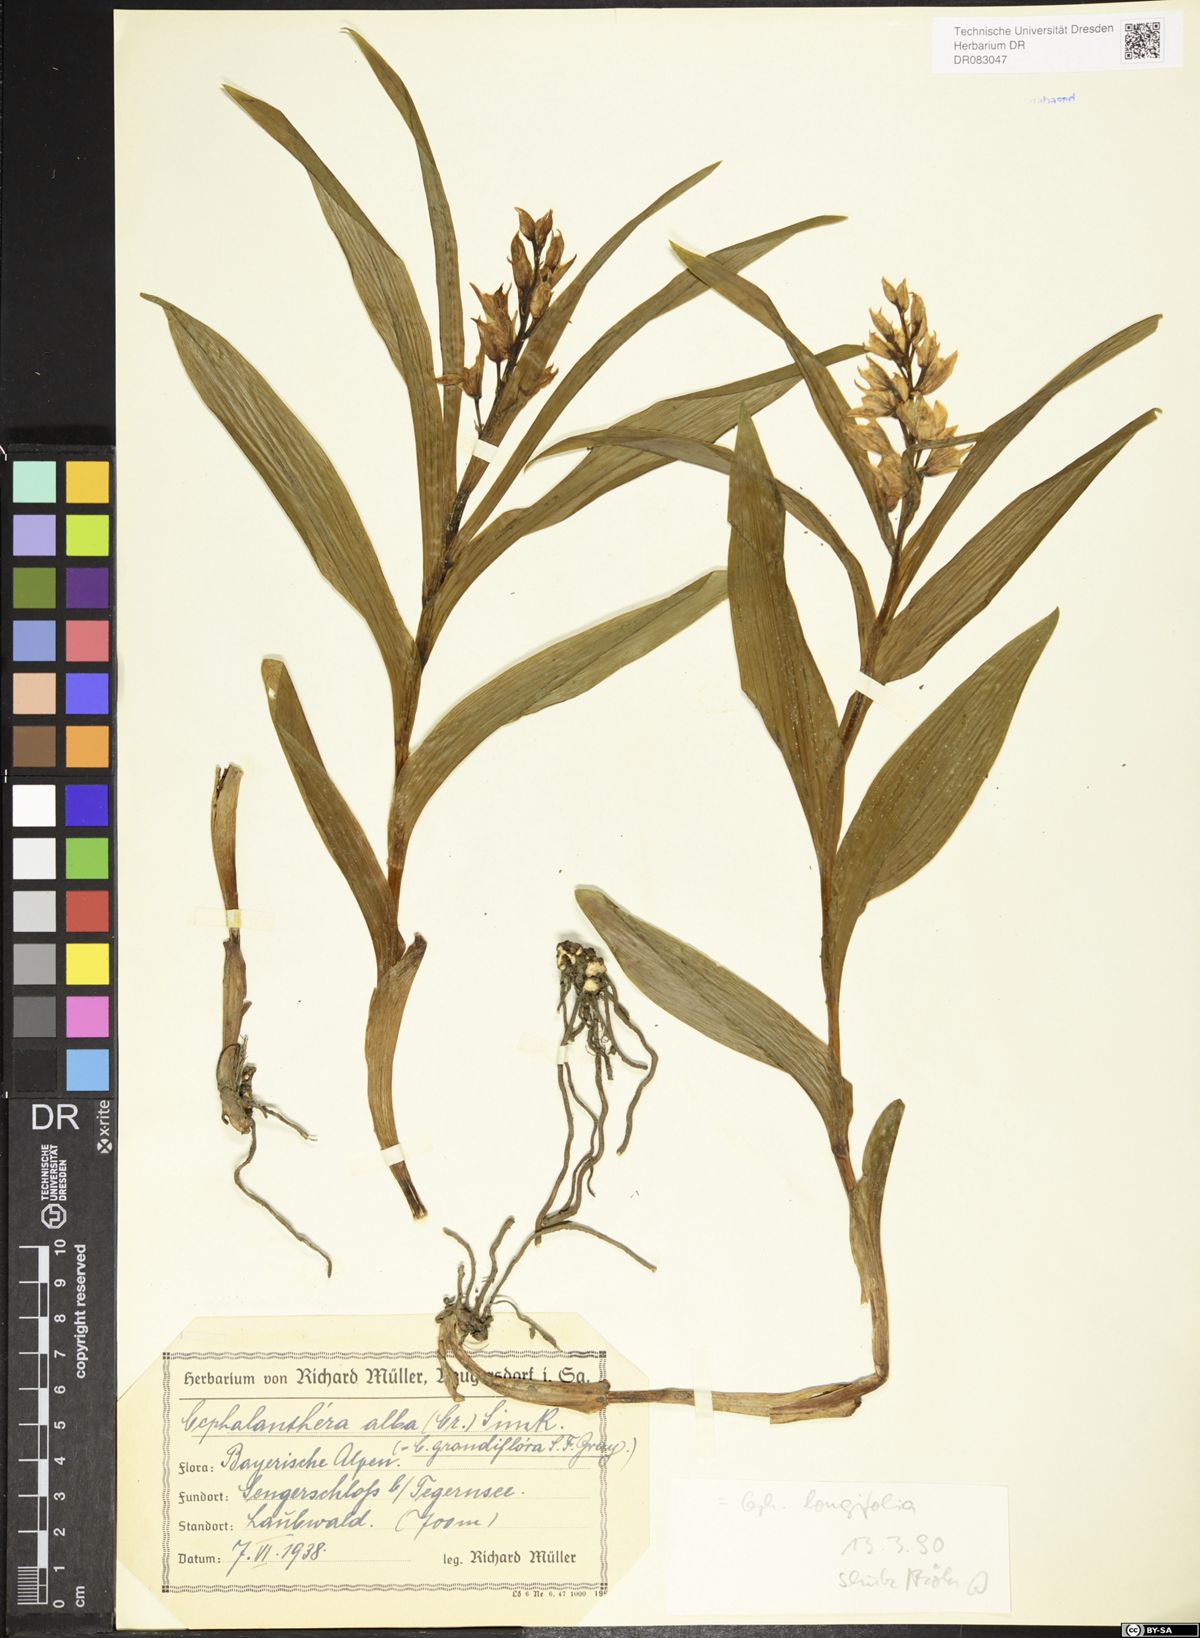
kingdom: Plantae
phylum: Tracheophyta
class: Liliopsida
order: Asparagales
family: Orchidaceae
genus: Cephalanthera
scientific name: Cephalanthera longifolia
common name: Narrow-leaved helleborine
